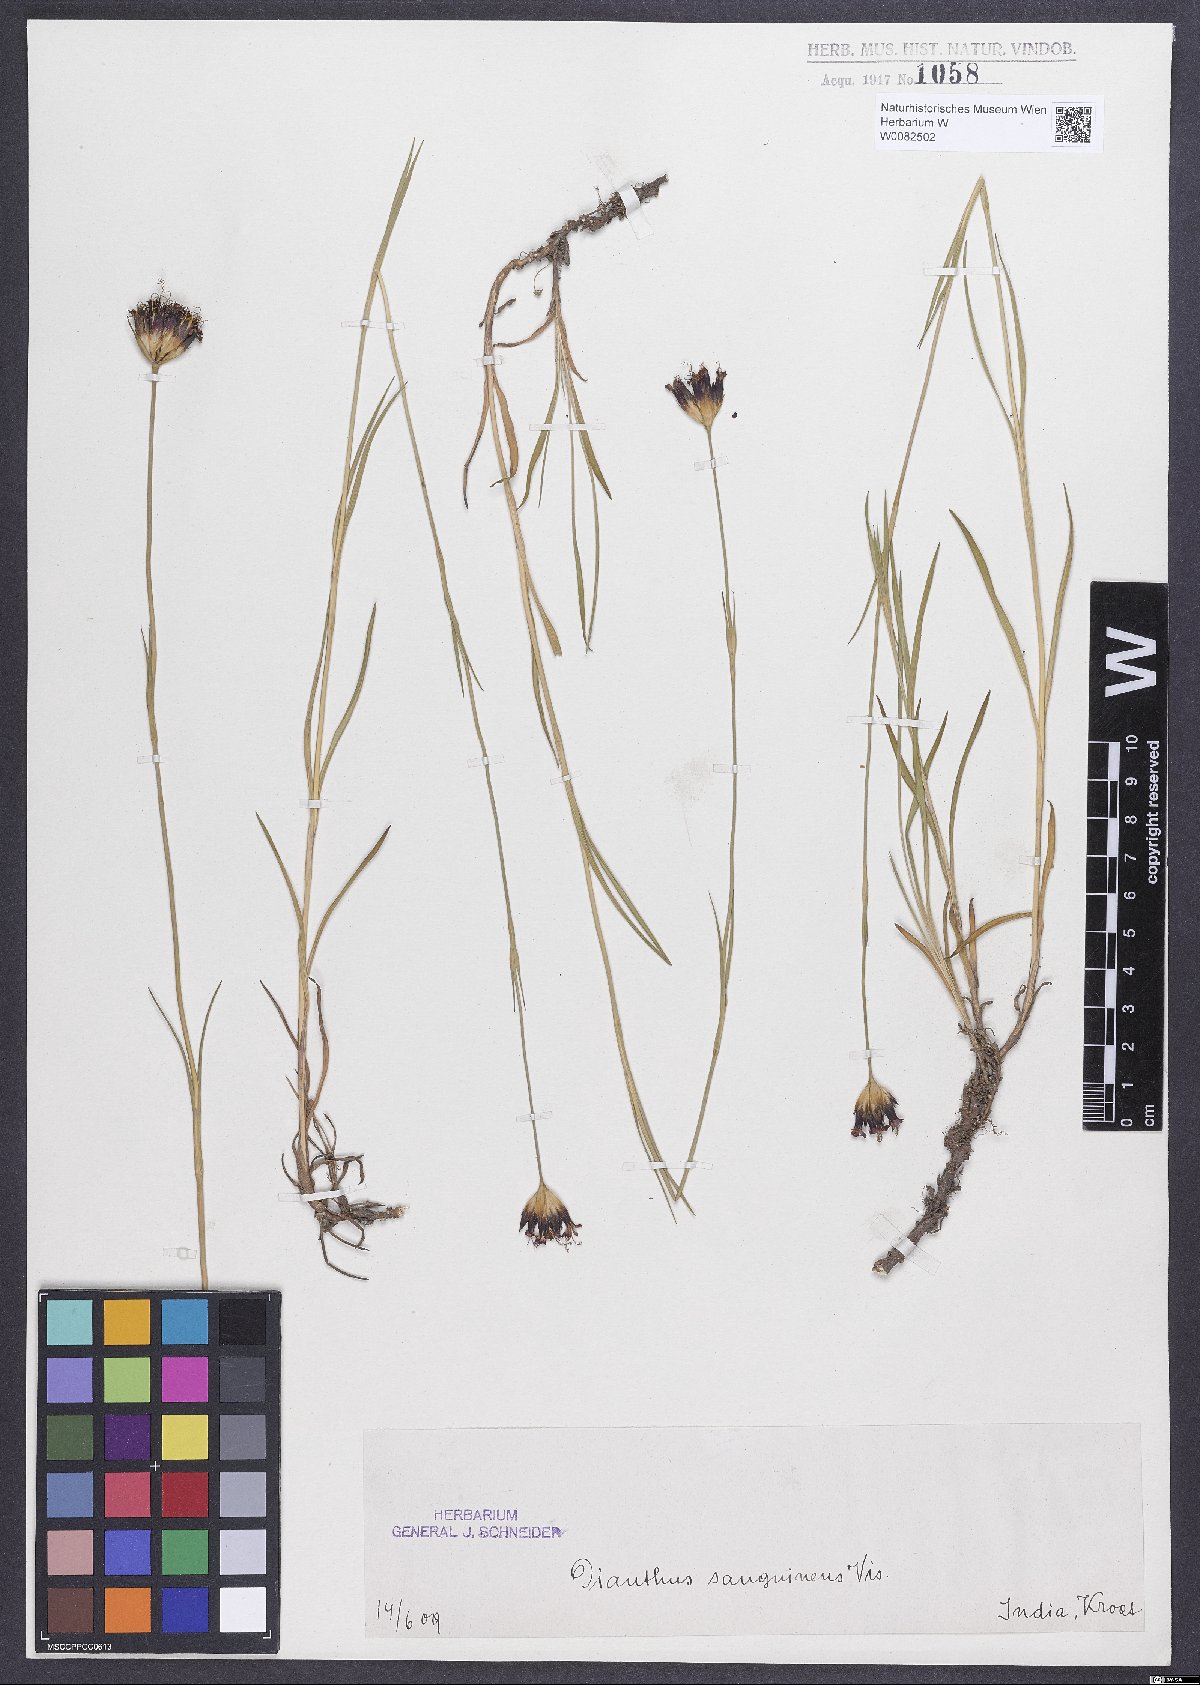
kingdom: Plantae
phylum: Tracheophyta
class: Magnoliopsida
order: Caryophyllales
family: Caryophyllaceae
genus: Dianthus
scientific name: Dianthus carthusianorum
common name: Carthusian pink
